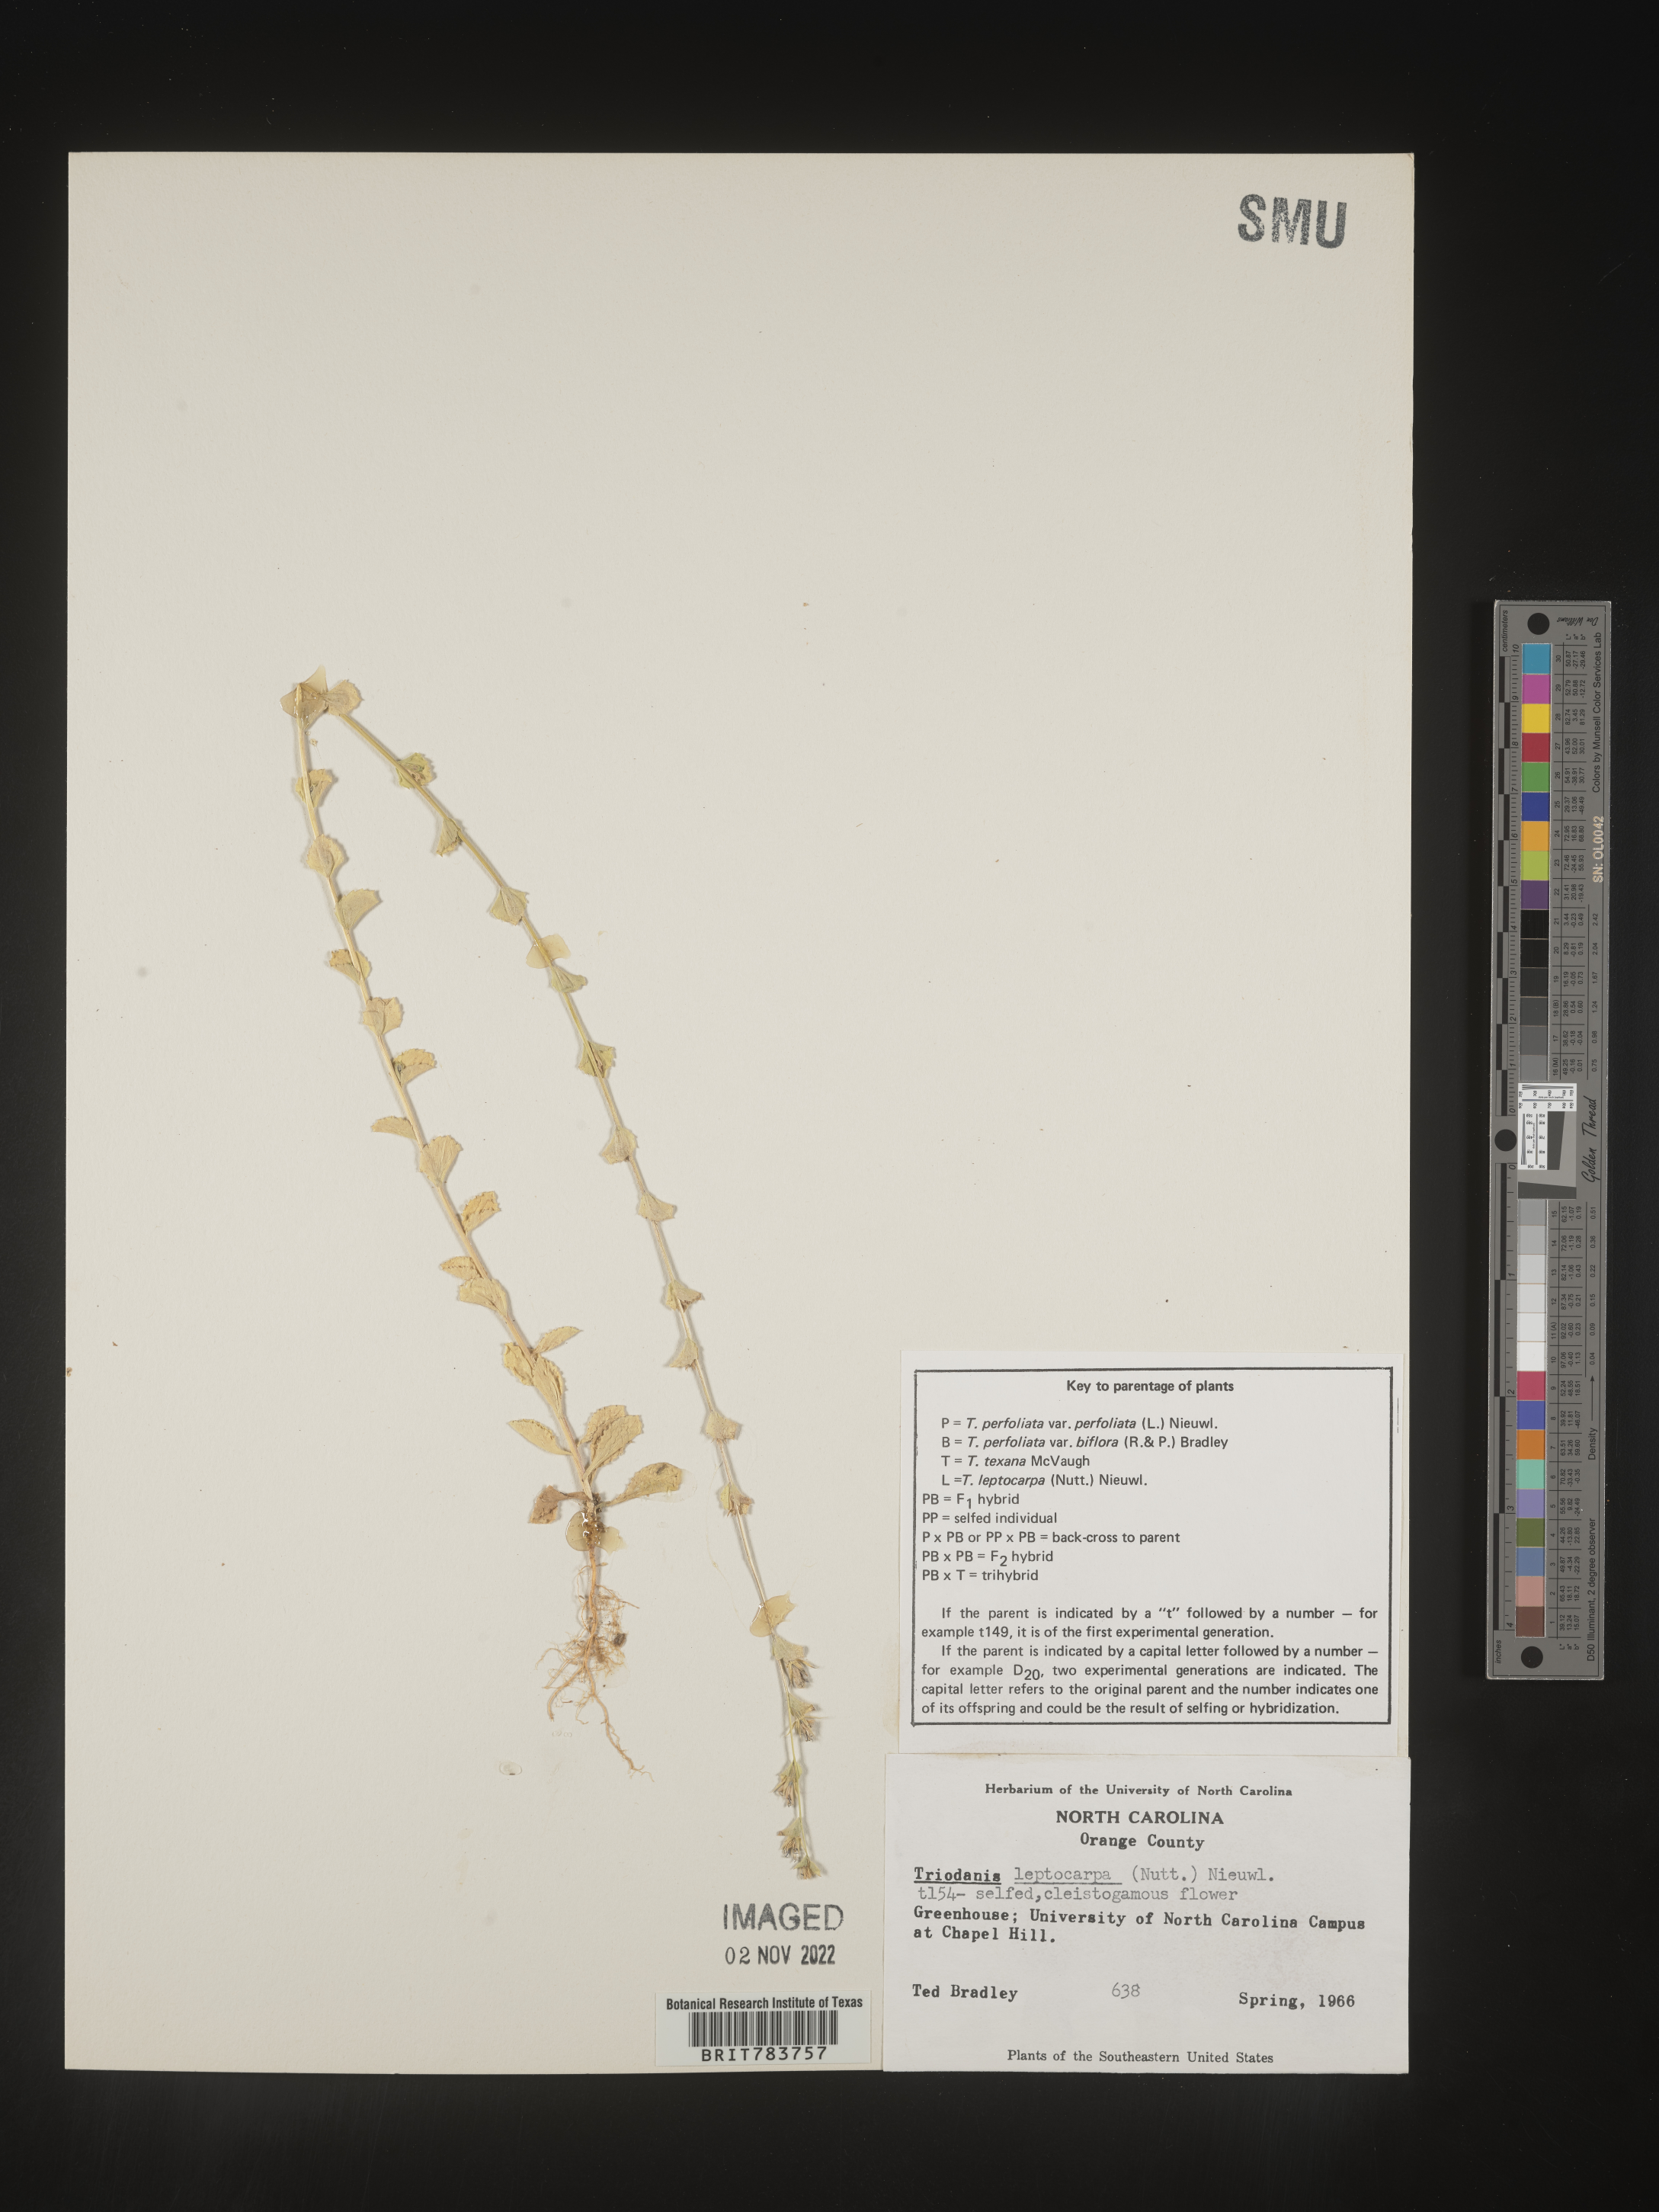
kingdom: Plantae
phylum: Tracheophyta
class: Magnoliopsida
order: Asterales
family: Campanulaceae
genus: Triodanis
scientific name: Triodanis
